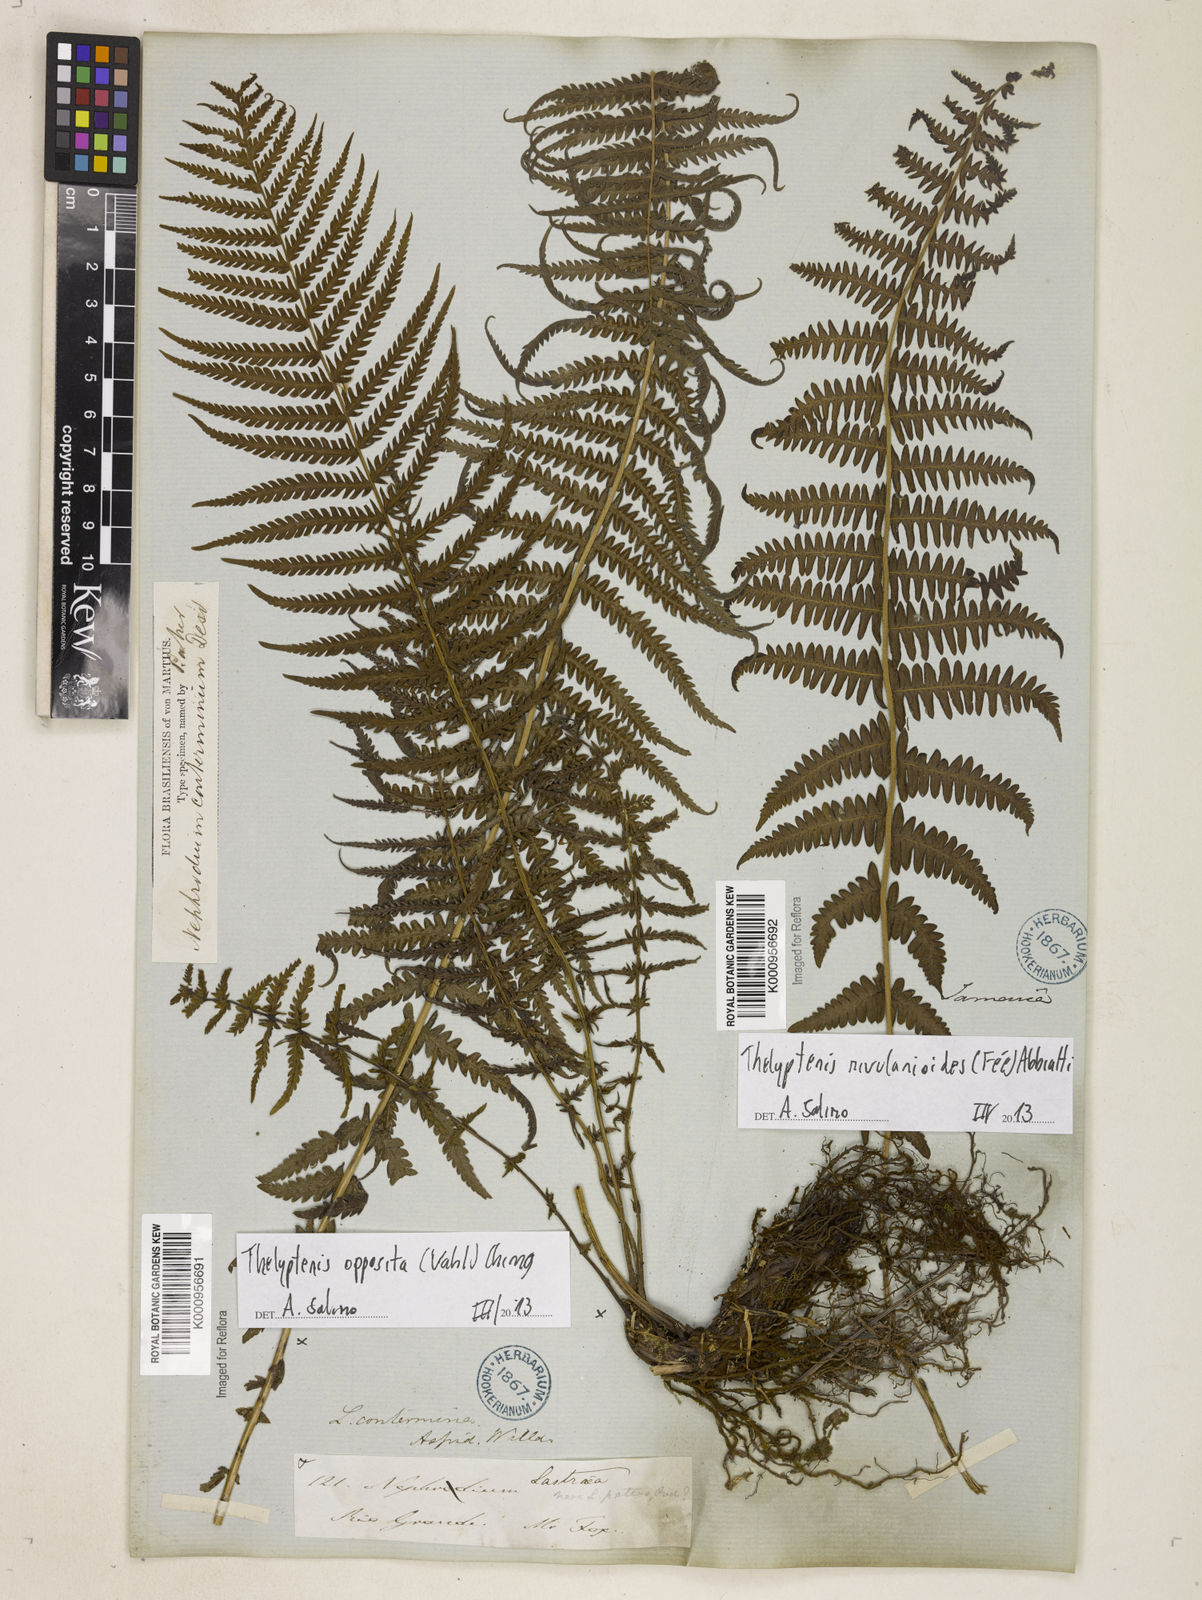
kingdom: Plantae
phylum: Tracheophyta
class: Polypodiopsida
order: Polypodiales
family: Thelypteridaceae
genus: Amauropelta
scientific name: Amauropelta opposita
